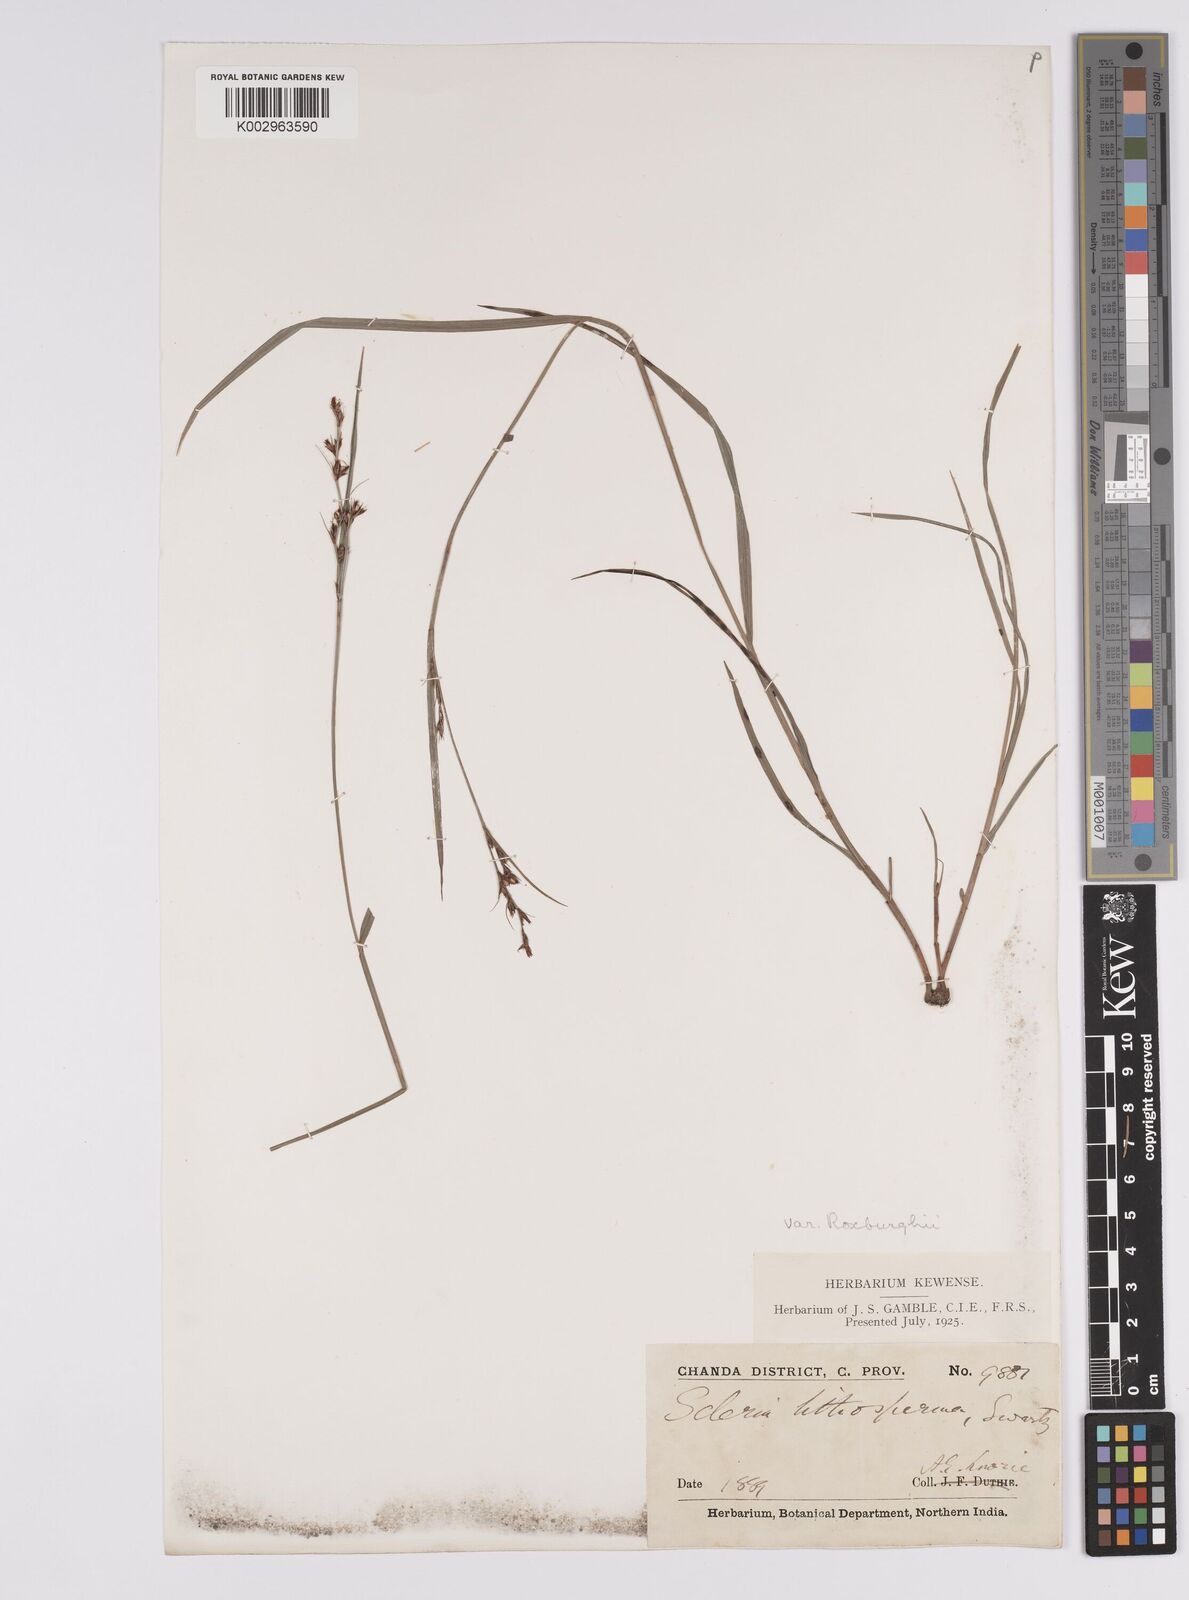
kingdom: Plantae
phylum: Tracheophyta
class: Liliopsida
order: Poales
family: Cyperaceae
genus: Scleria
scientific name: Scleria lithosperma
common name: Florida keys nut-rush
